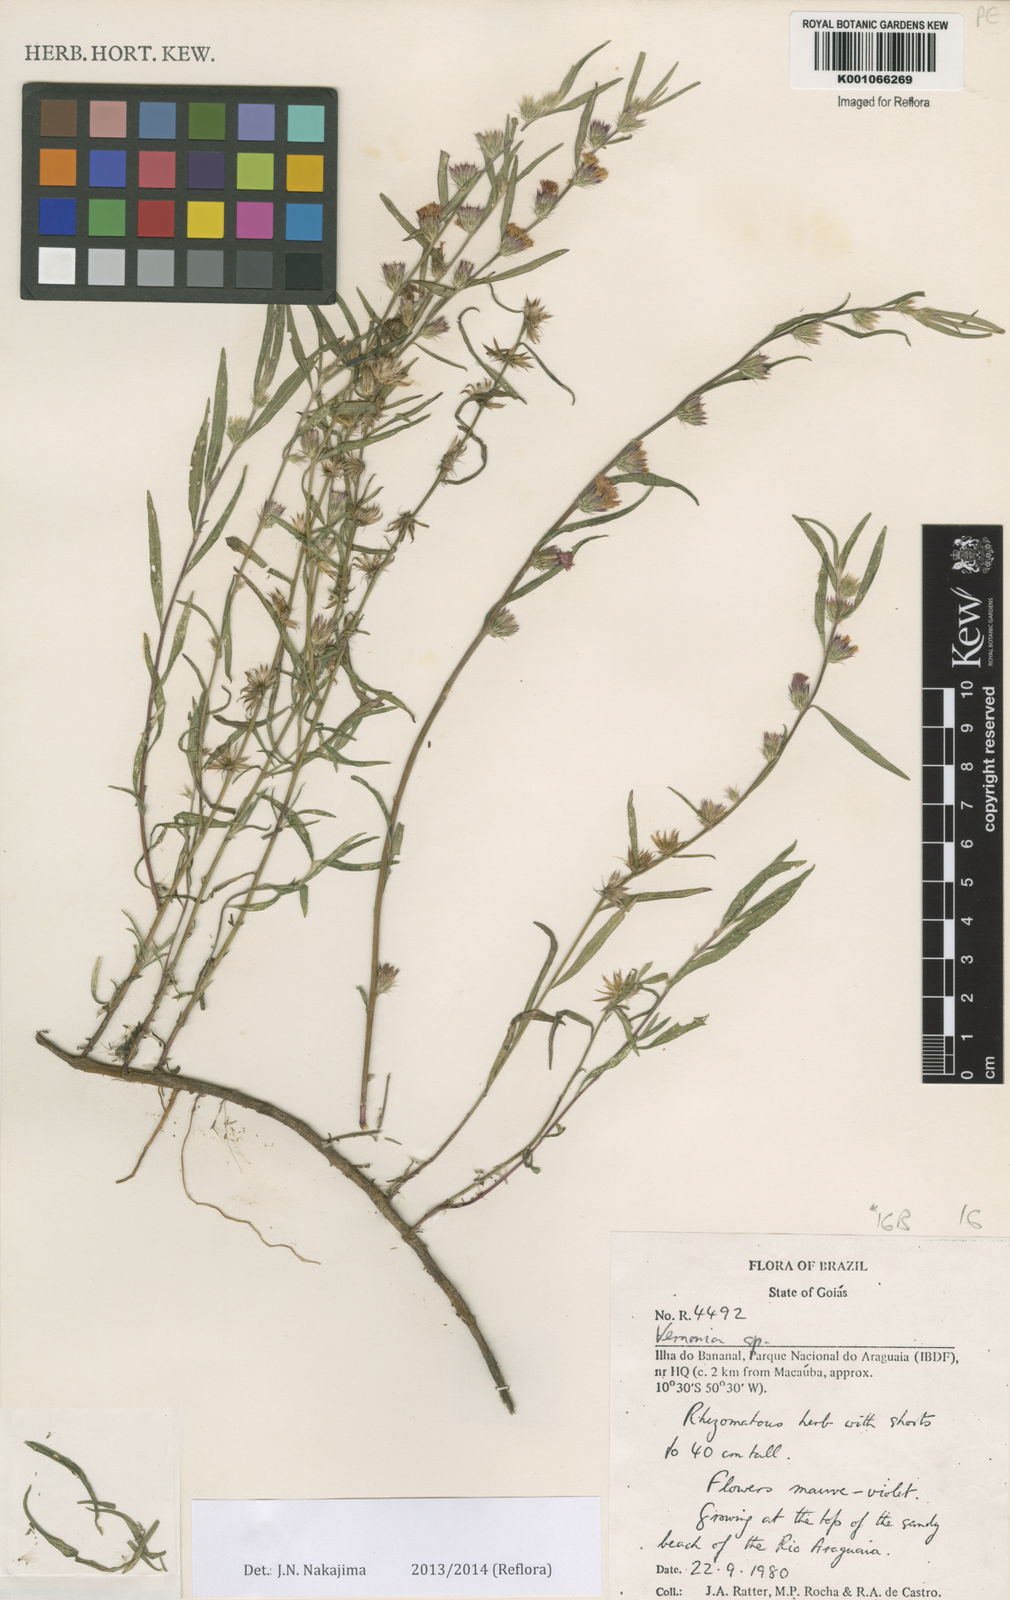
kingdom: Plantae
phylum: Tracheophyta
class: Magnoliopsida
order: Asterales
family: Asteraceae
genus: Lepidaploa
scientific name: Lepidaploa silvae
